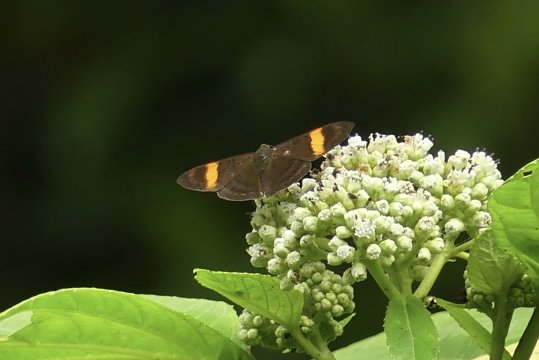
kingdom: Animalia
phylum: Arthropoda
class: Insecta
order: Lepidoptera
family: Lycaenidae
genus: Emesis
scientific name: Emesis cypria
